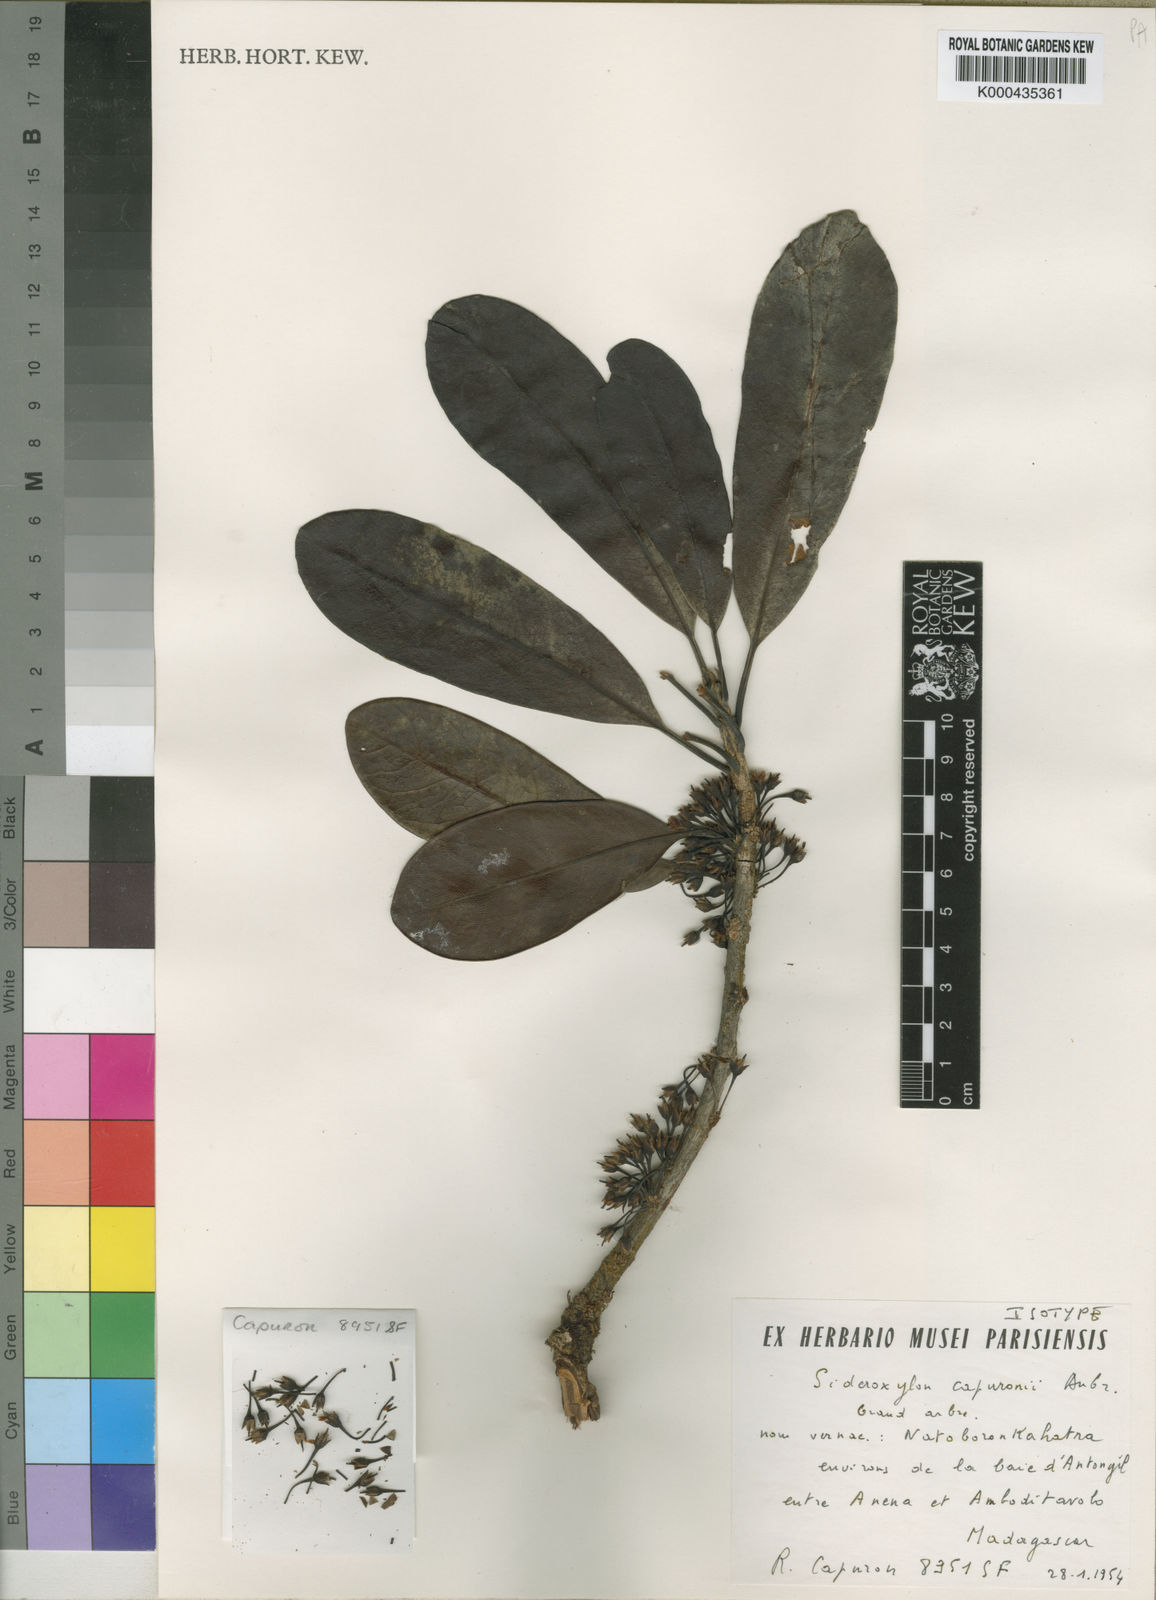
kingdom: Plantae
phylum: Tracheophyta
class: Magnoliopsida
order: Ericales
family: Sapotaceae
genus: Sideroxylon
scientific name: Sideroxylon
